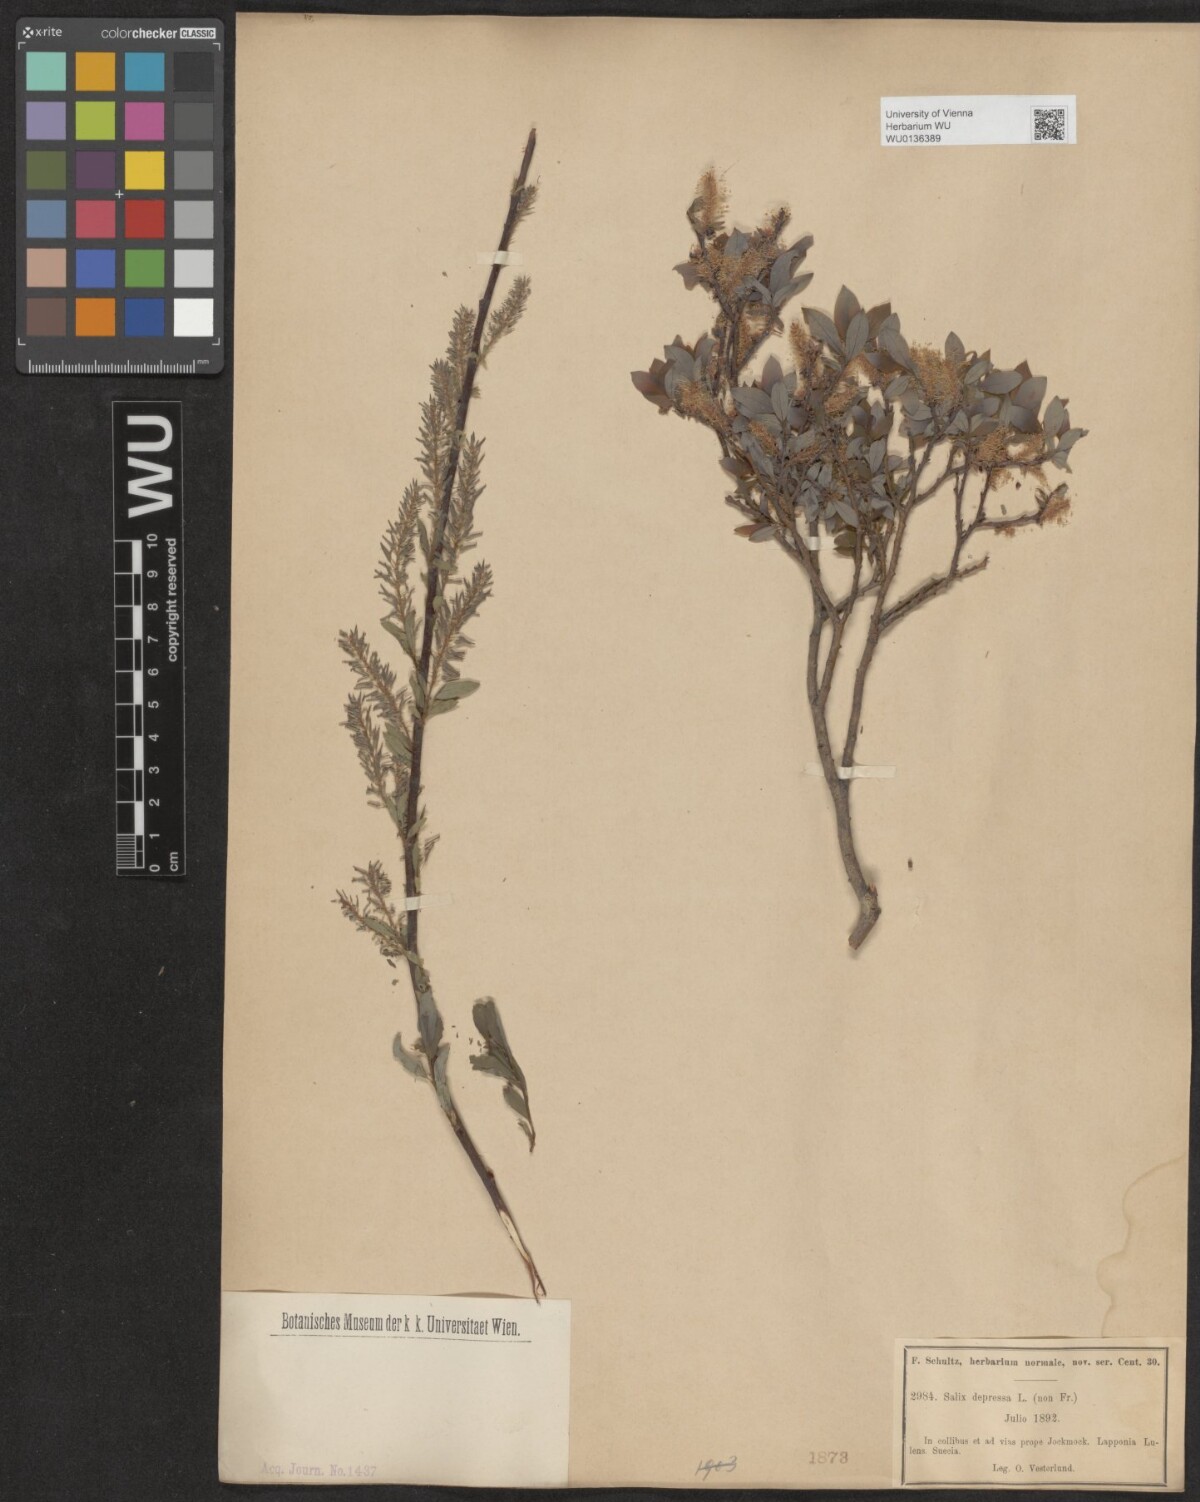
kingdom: Plantae
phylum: Tracheophyta
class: Magnoliopsida
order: Malpighiales
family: Salicaceae
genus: Salix
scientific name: Salix lanata
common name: Woolly willow
